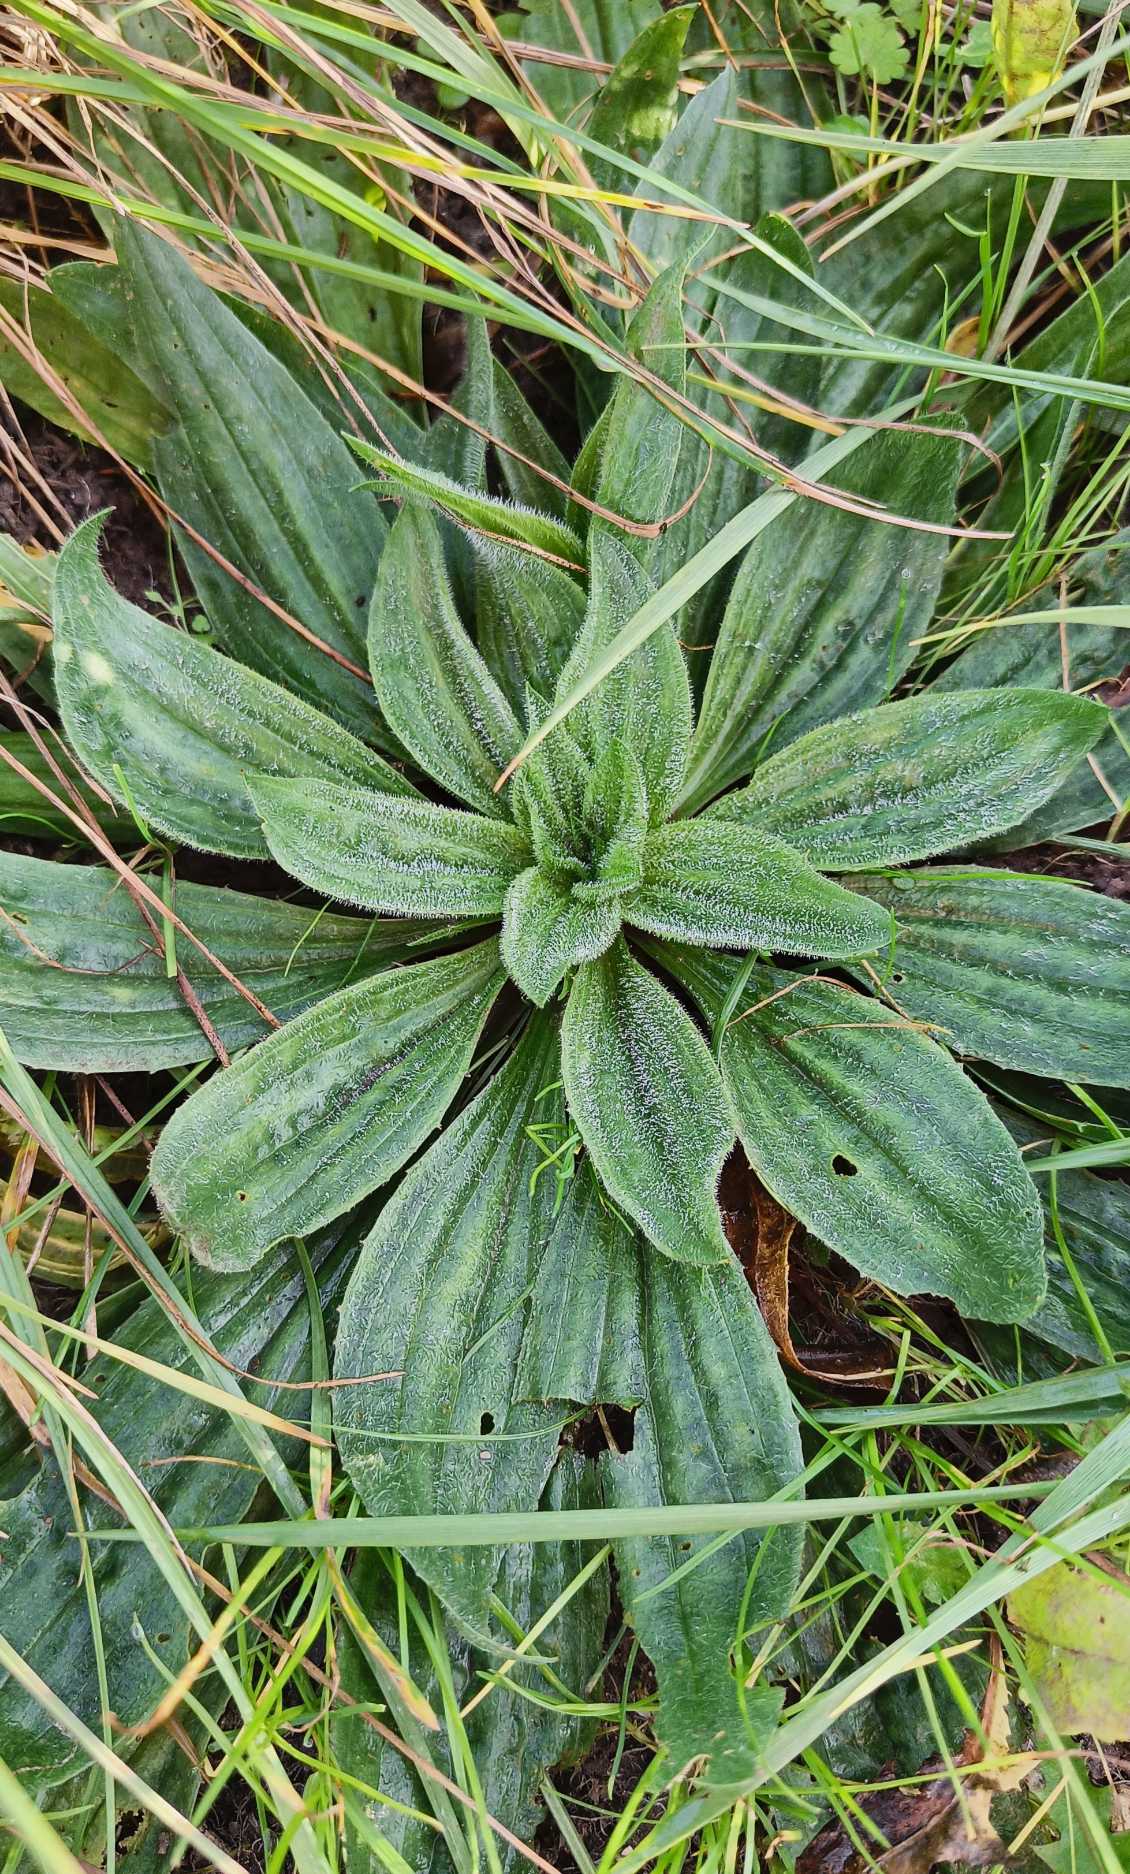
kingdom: Plantae
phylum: Tracheophyta
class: Magnoliopsida
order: Lamiales
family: Plantaginaceae
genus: Plantago
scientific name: Plantago lanceolata
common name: Lancet-vejbred
